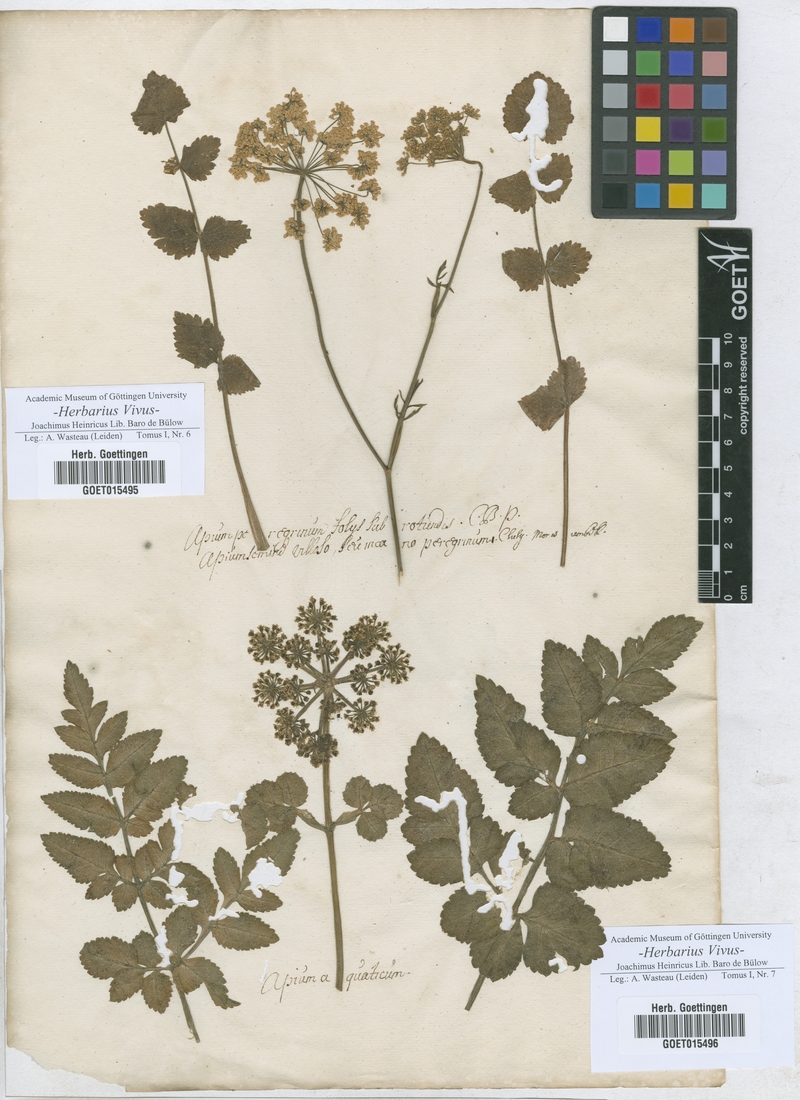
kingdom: Plantae
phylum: Tracheophyta
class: Magnoliopsida
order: Apiales
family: Apiaceae
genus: Apium
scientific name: Apium
